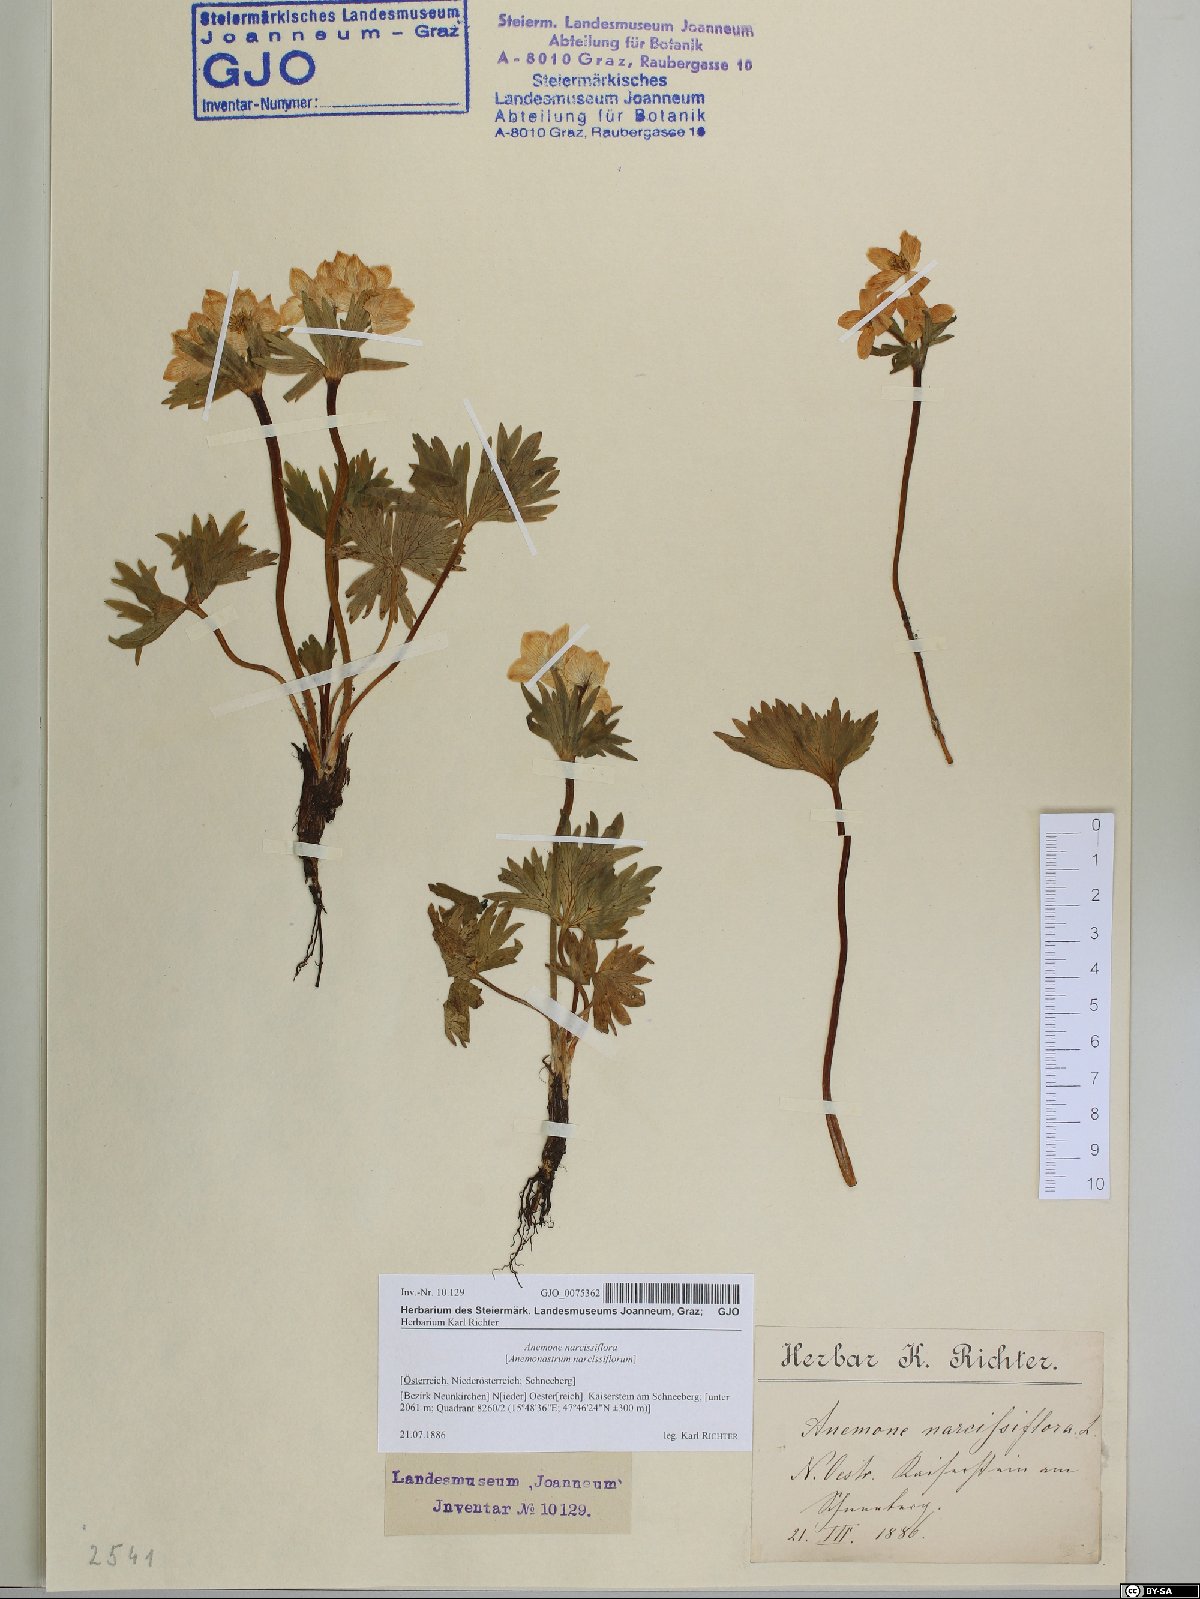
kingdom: Plantae
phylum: Tracheophyta
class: Magnoliopsida
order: Ranunculales
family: Ranunculaceae
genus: Anemonastrum
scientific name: Anemonastrum narcissiflorum
